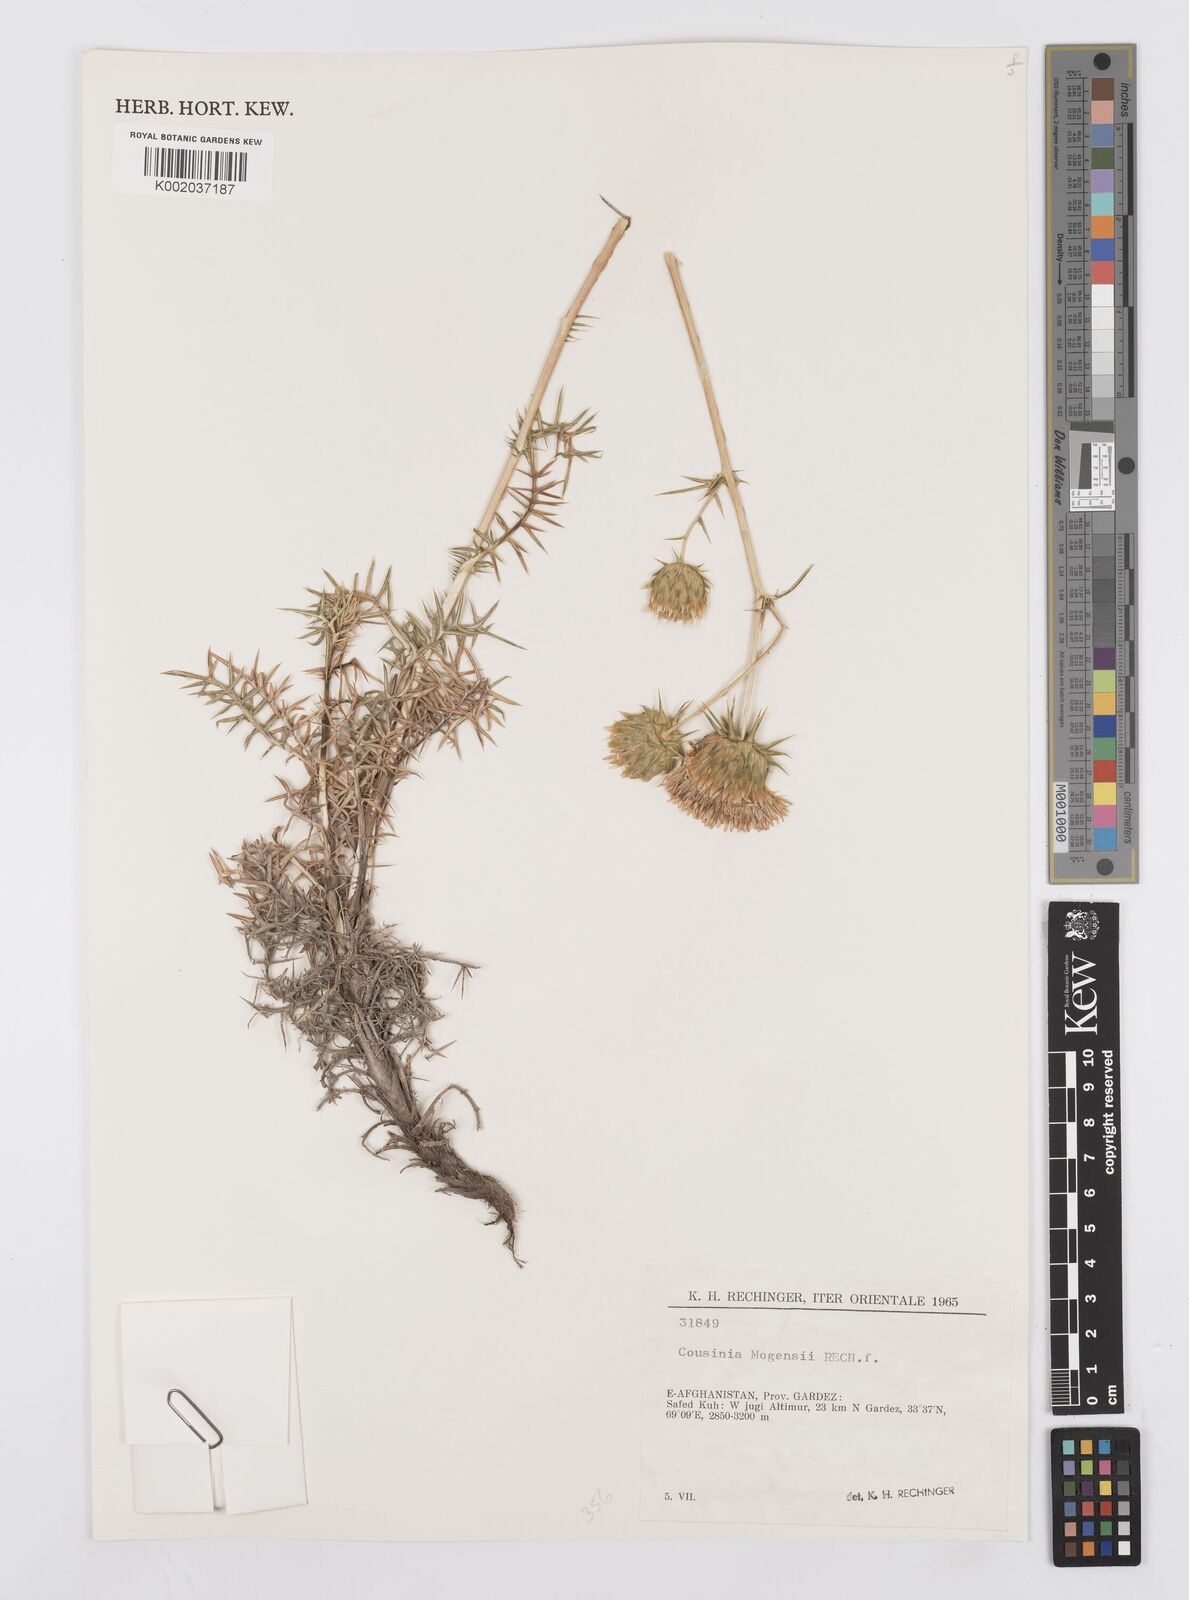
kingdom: Plantae
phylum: Tracheophyta
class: Magnoliopsida
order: Asterales
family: Asteraceae
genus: Cousinia
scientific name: Cousinia mogensii
